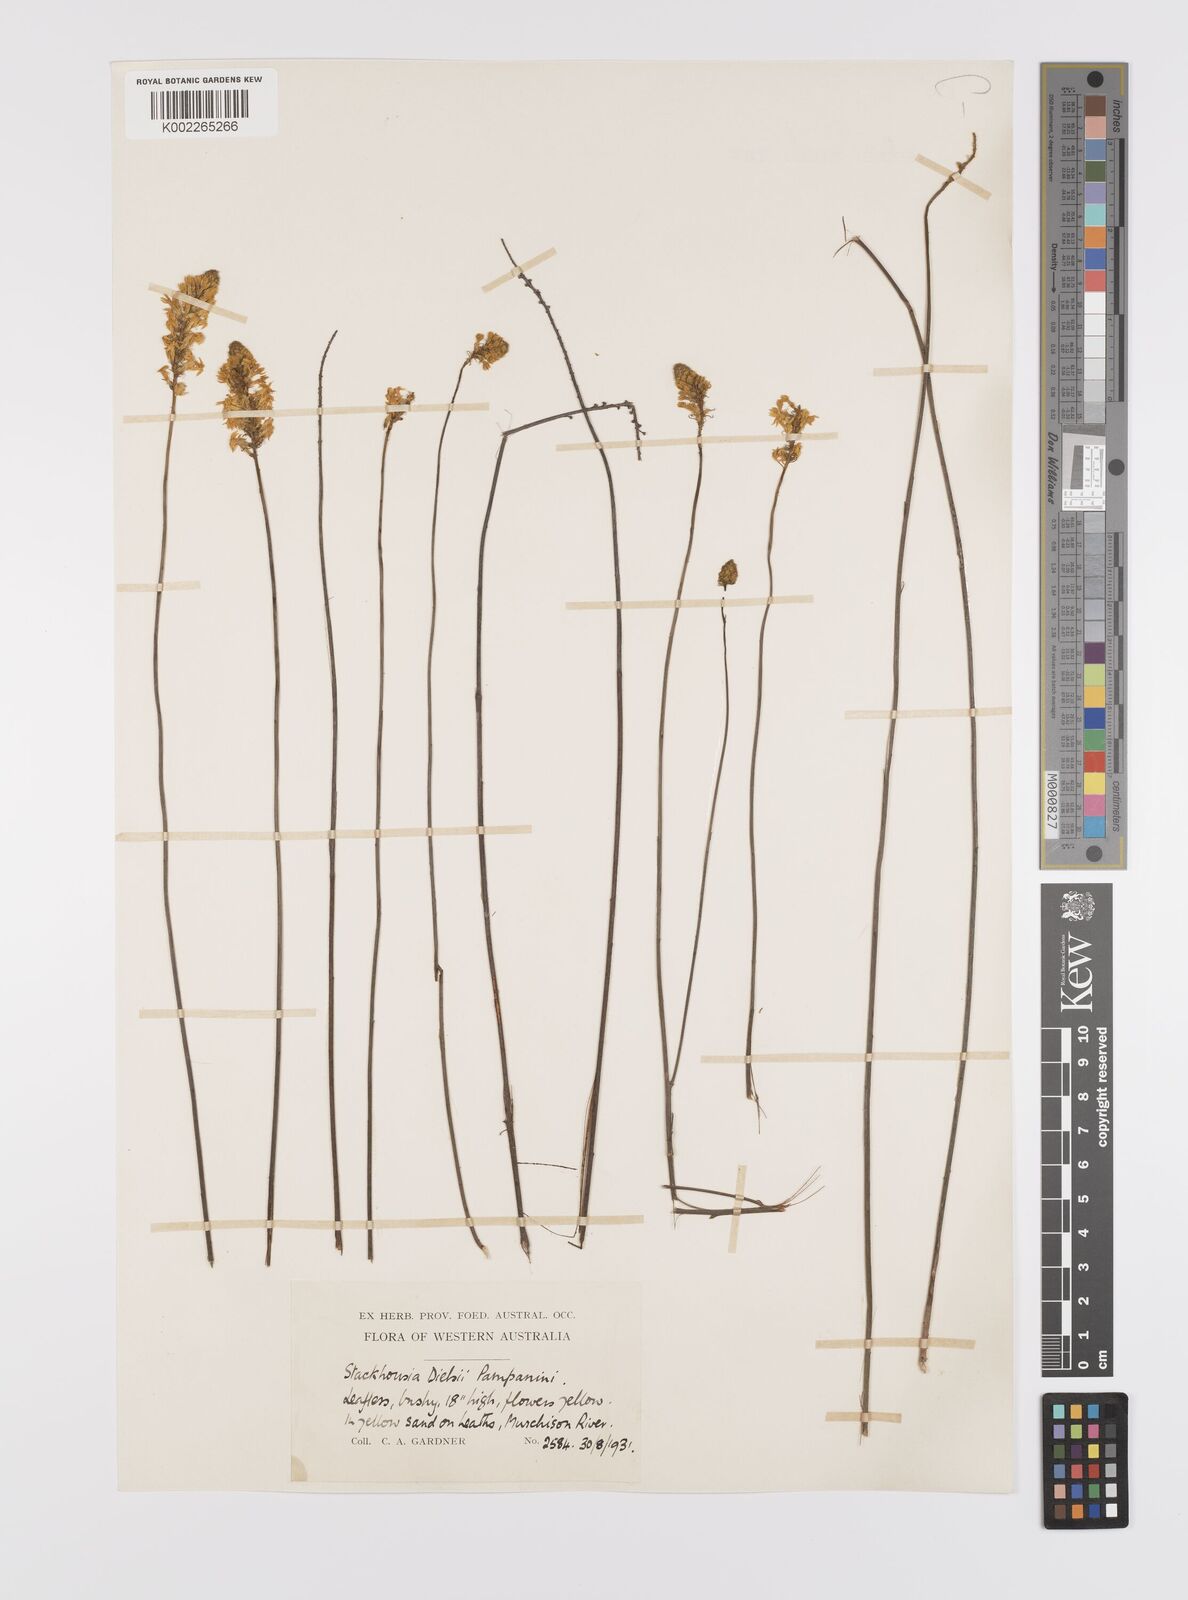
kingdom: Plantae
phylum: Tracheophyta
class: Magnoliopsida
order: Celastrales
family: Celastraceae
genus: Stackhousia
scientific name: Stackhousia dielsii
